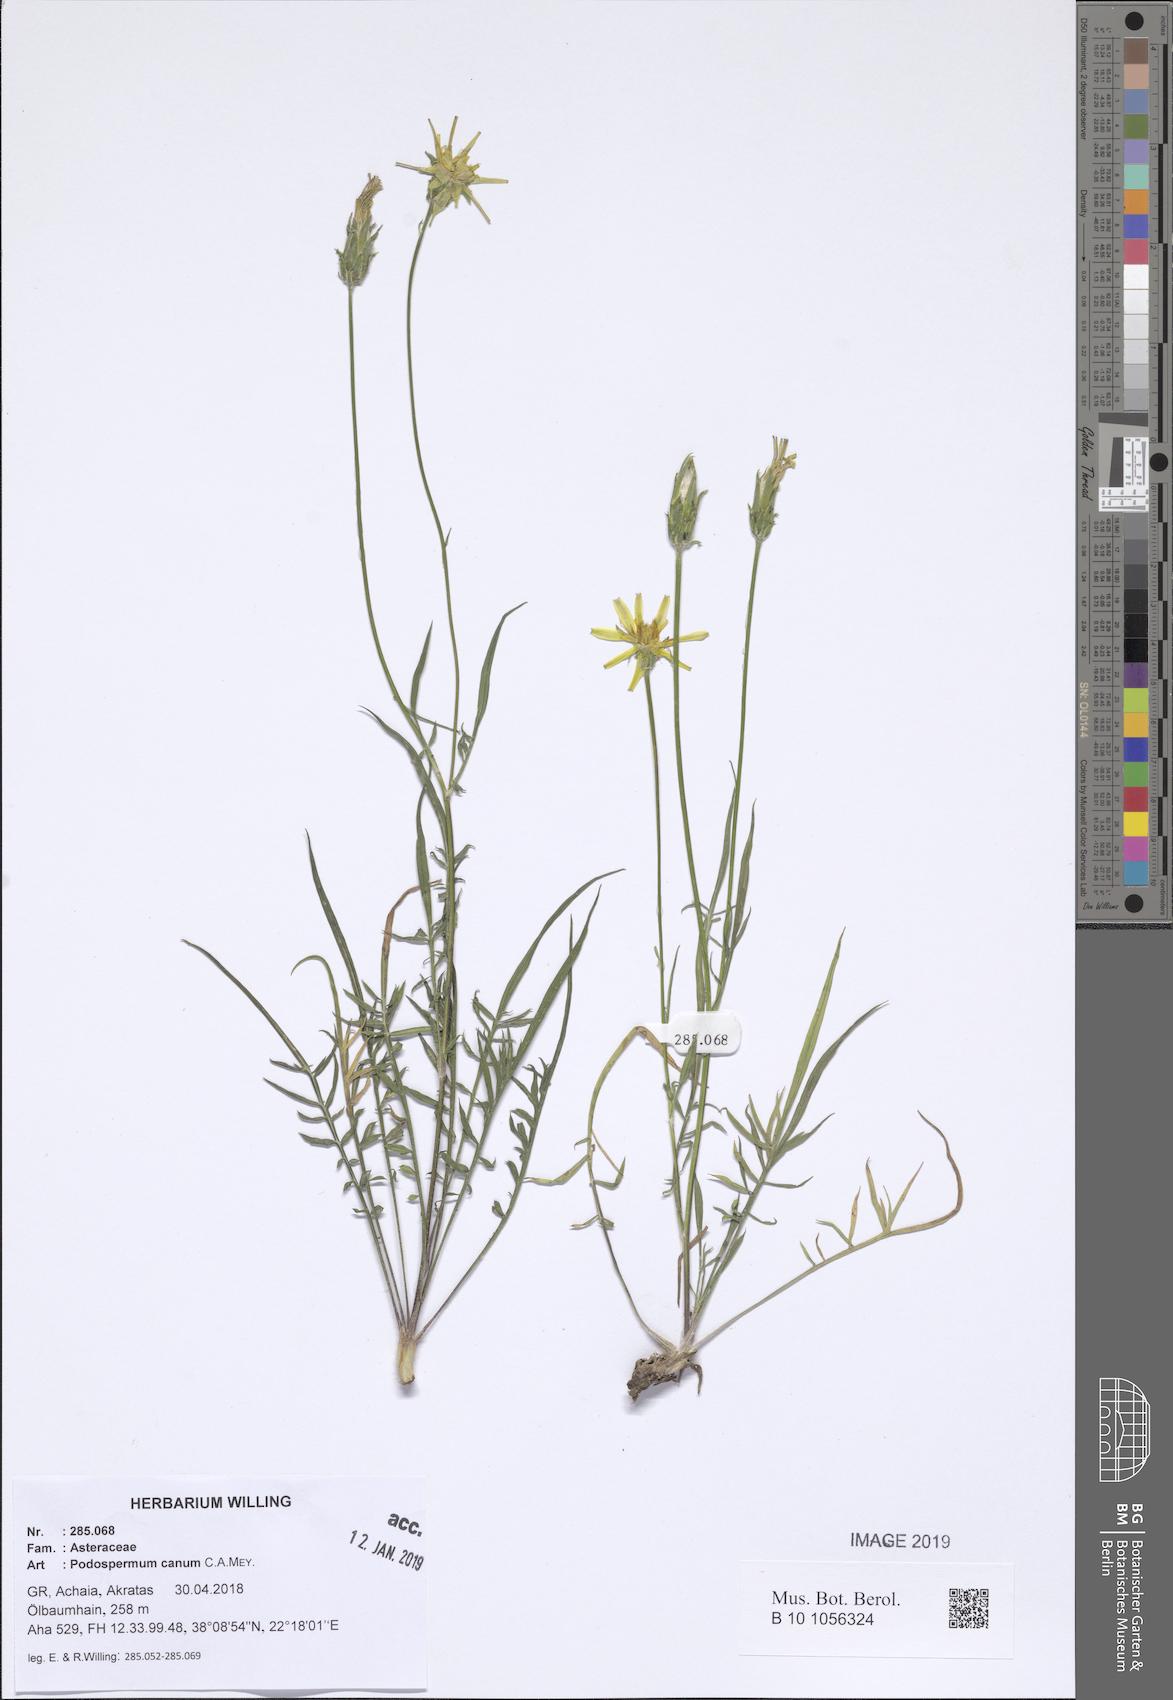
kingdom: Plantae
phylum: Tracheophyta
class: Magnoliopsida
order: Asterales
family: Asteraceae
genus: Scorzonera
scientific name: Scorzonera cana
